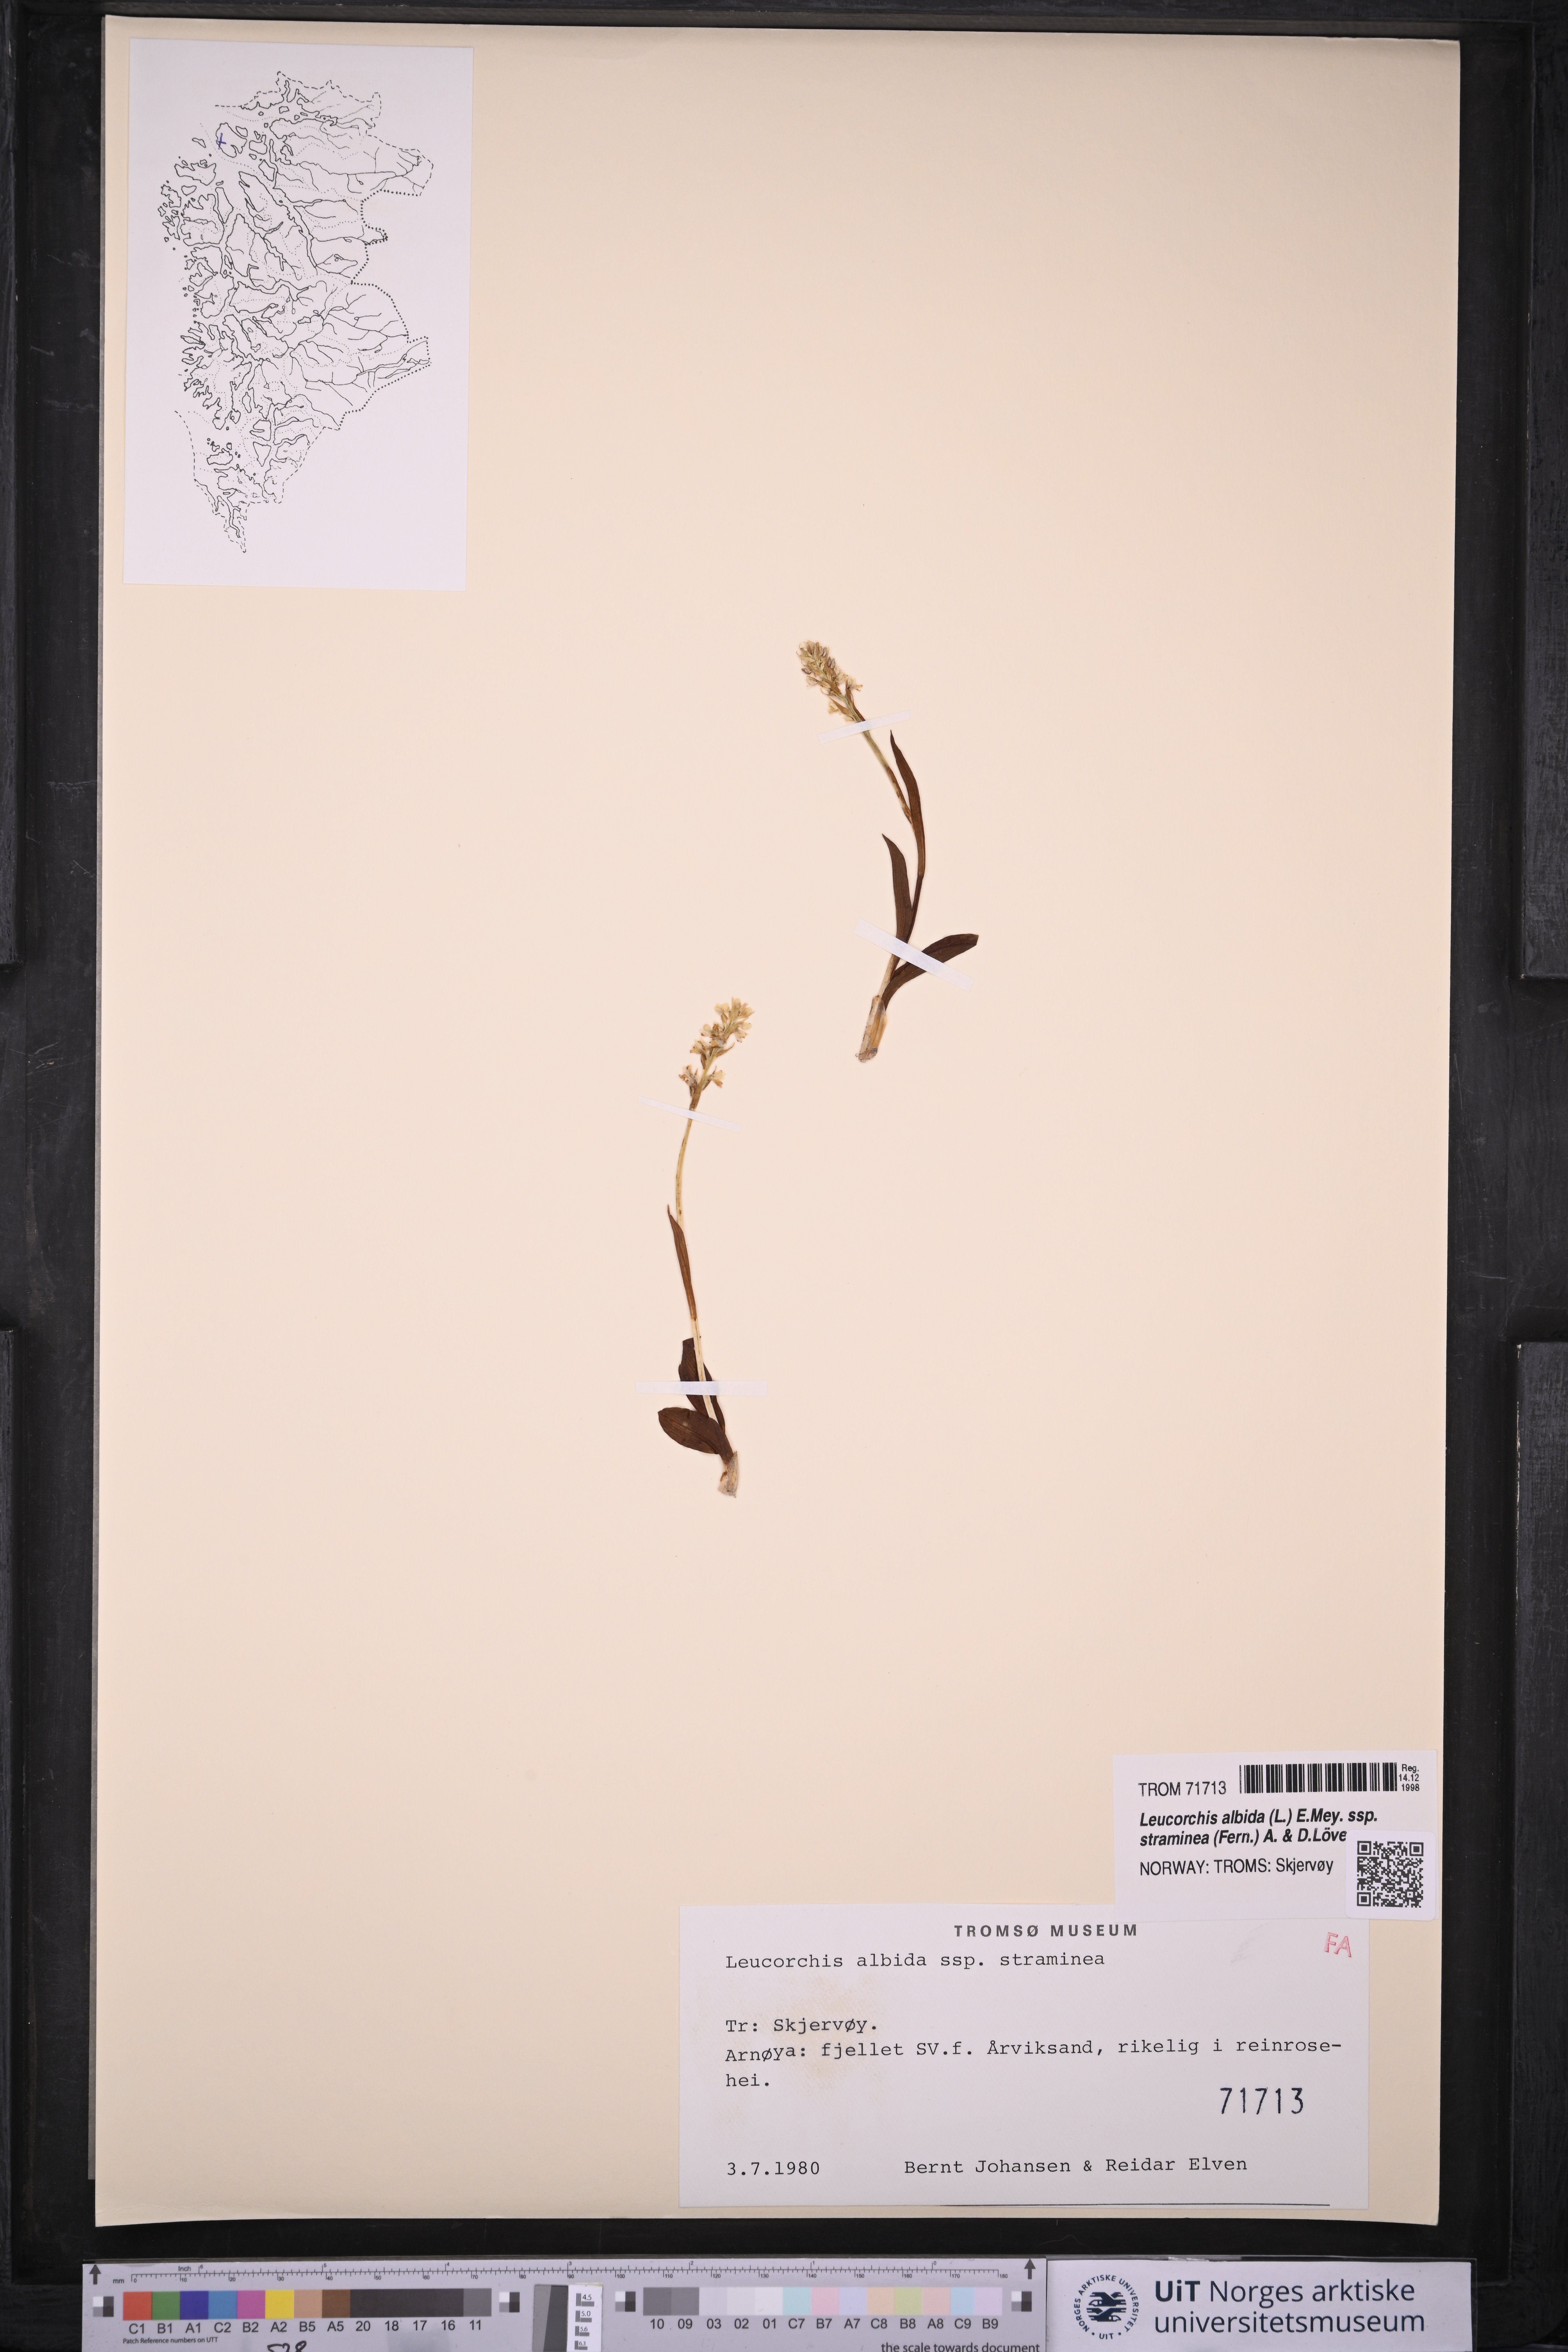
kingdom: Plantae
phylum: Tracheophyta
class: Liliopsida
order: Asparagales
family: Orchidaceae
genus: Pseudorchis
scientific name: Pseudorchis straminea
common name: Vanilla-scented bog orchid
